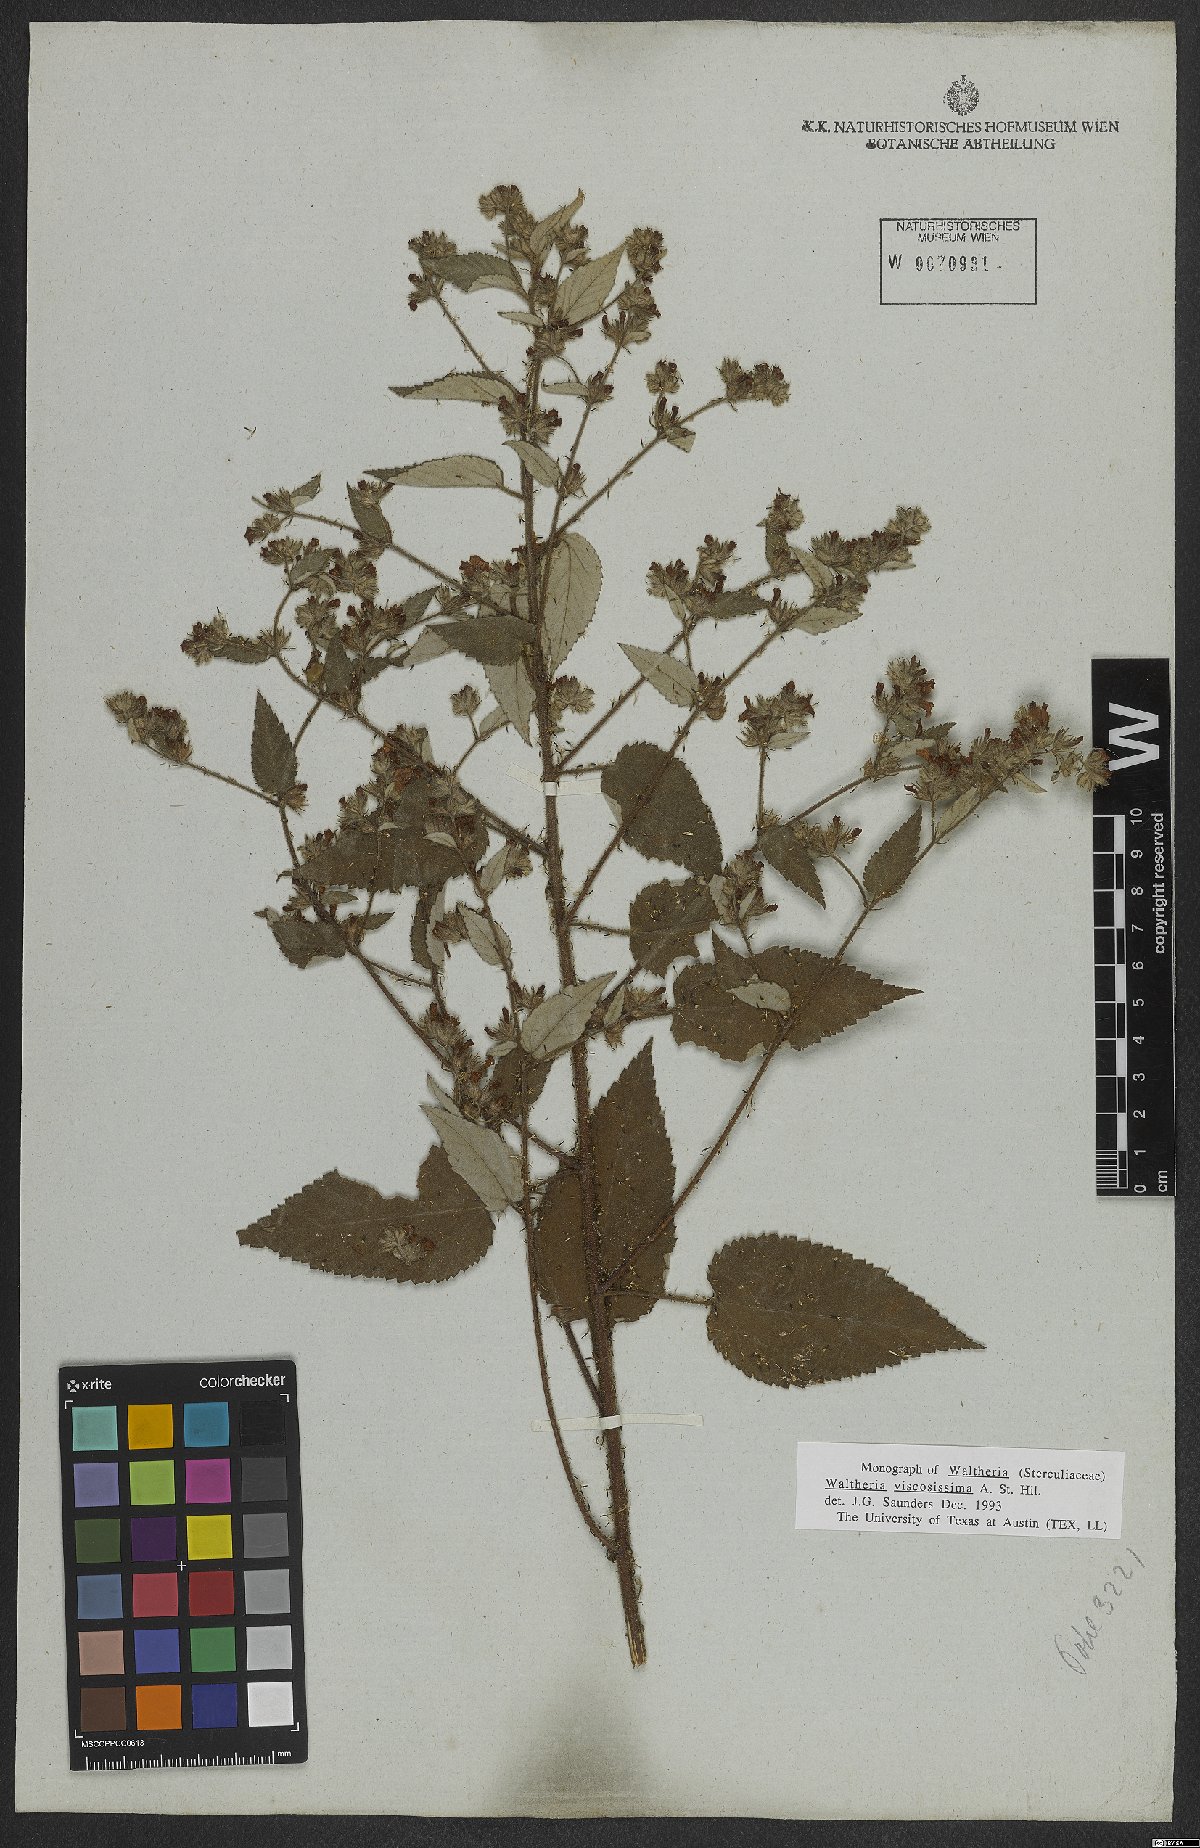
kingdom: Plantae
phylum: Tracheophyta
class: Magnoliopsida
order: Malvales
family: Malvaceae
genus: Waltheria
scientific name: Waltheria viscosissima
